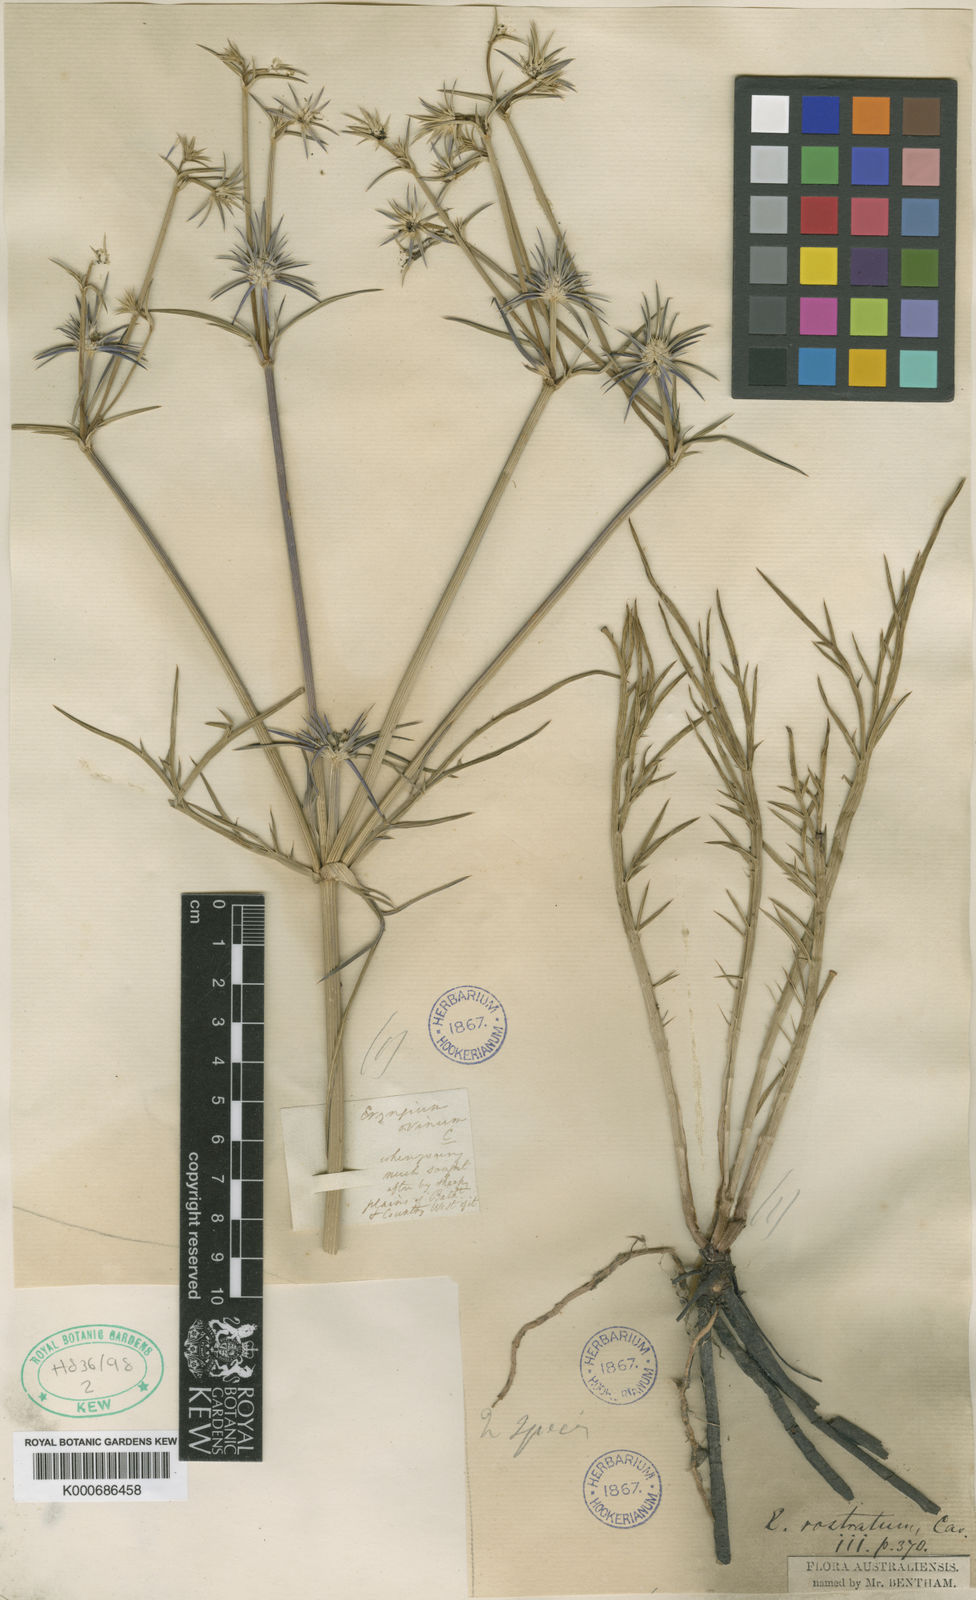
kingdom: Plantae
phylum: Tracheophyta
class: Magnoliopsida
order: Apiales
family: Apiaceae
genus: Eryngium
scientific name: Eryngium rostratum
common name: Blue eryngo
